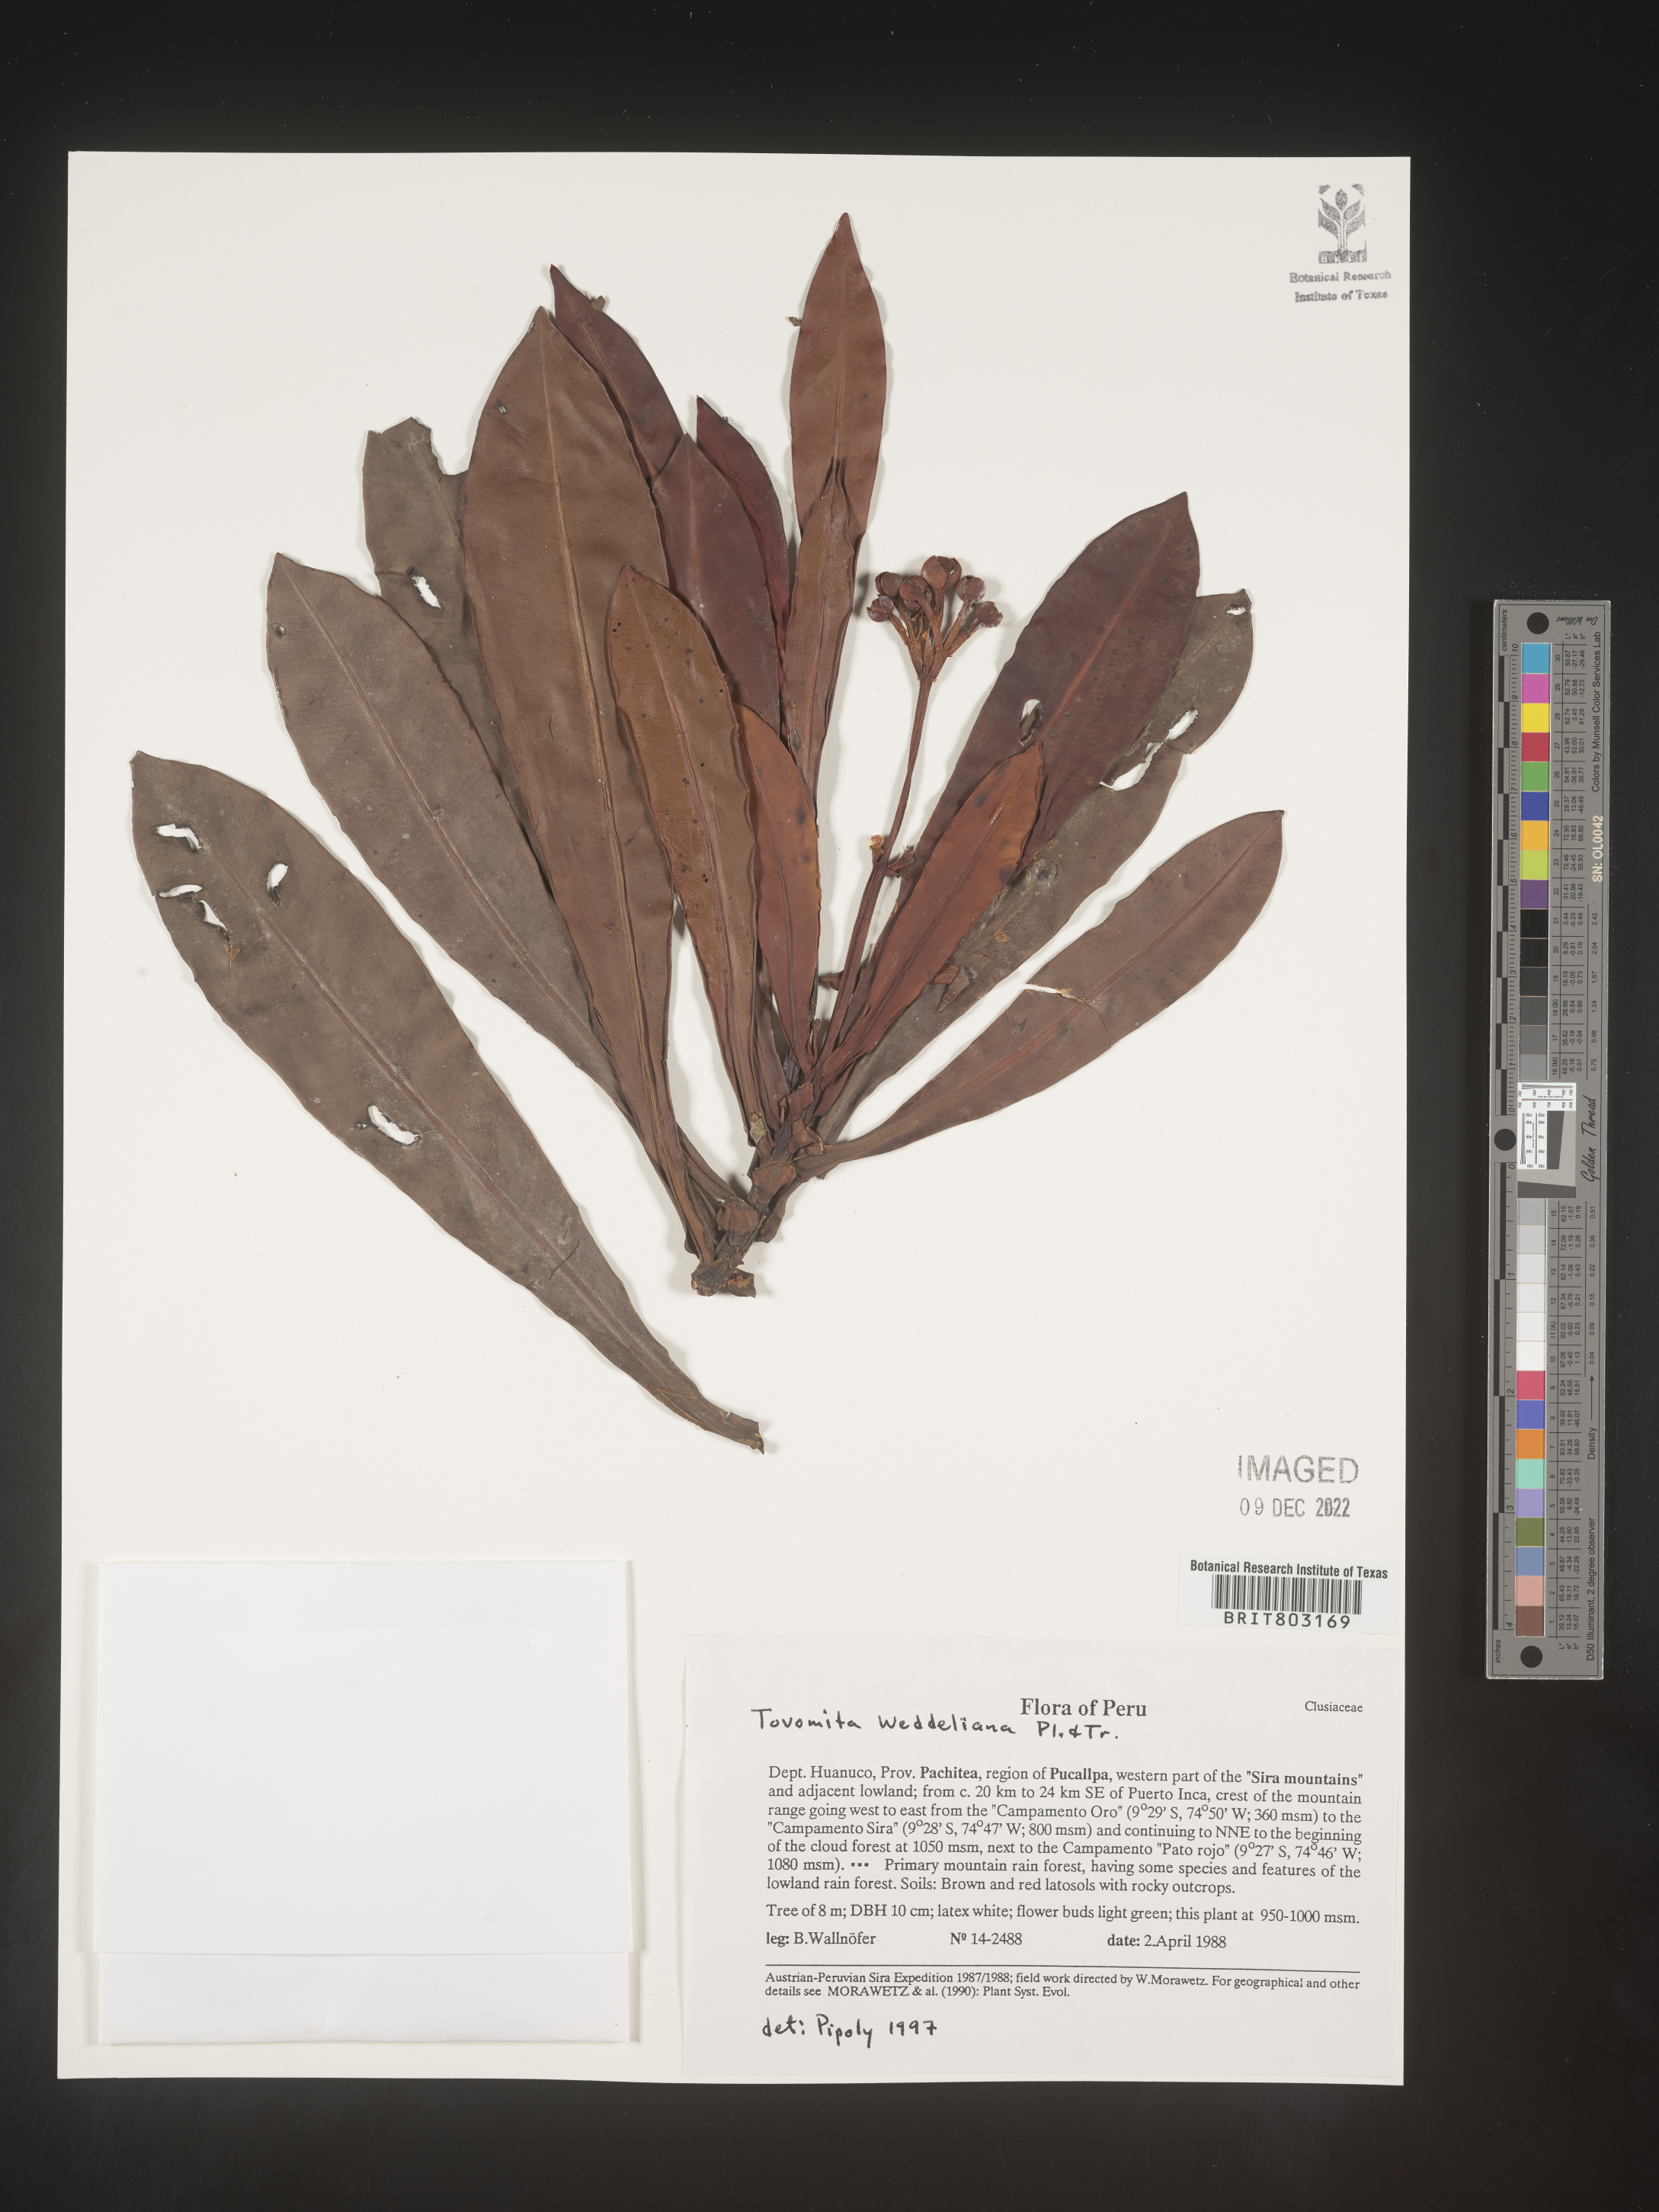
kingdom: Plantae
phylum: Tracheophyta
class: Magnoliopsida
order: Malpighiales
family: Clusiaceae
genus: Arawakia
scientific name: Arawakia weddelliana
